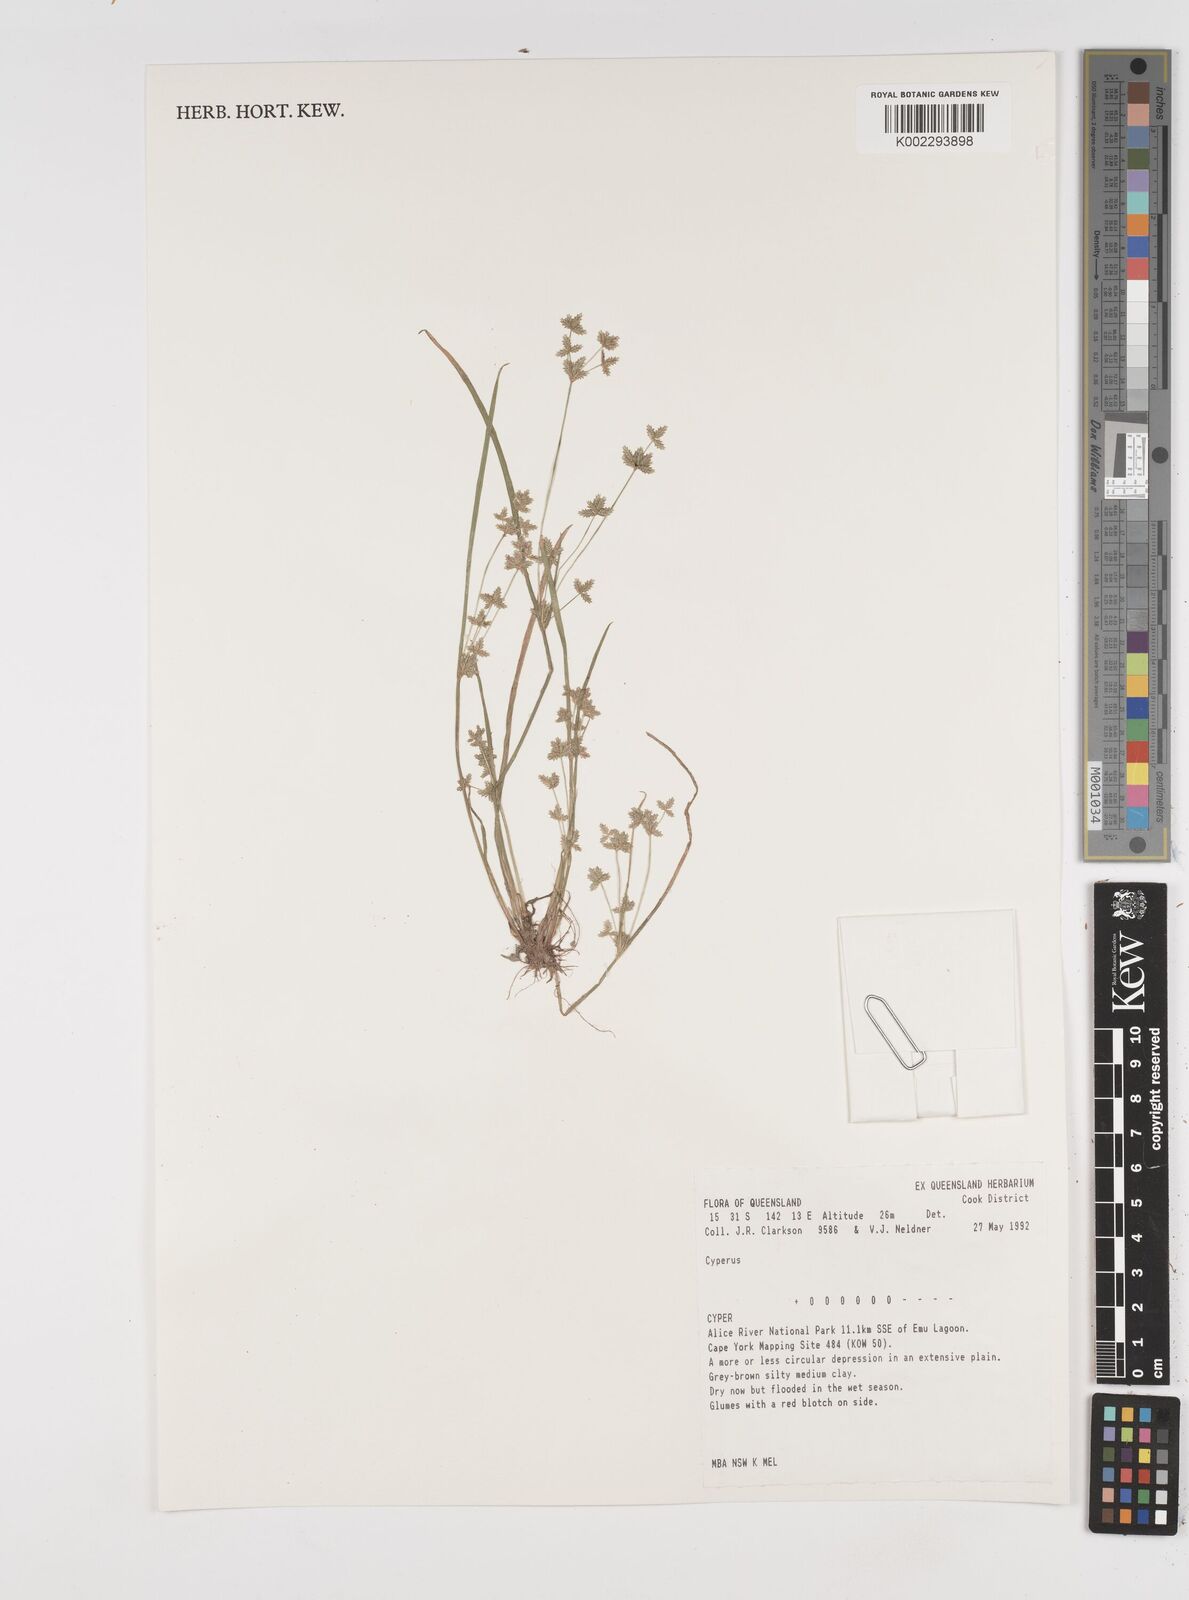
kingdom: Plantae
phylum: Tracheophyta
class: Liliopsida
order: Poales
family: Cyperaceae
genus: Cyperus
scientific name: Cyperus
